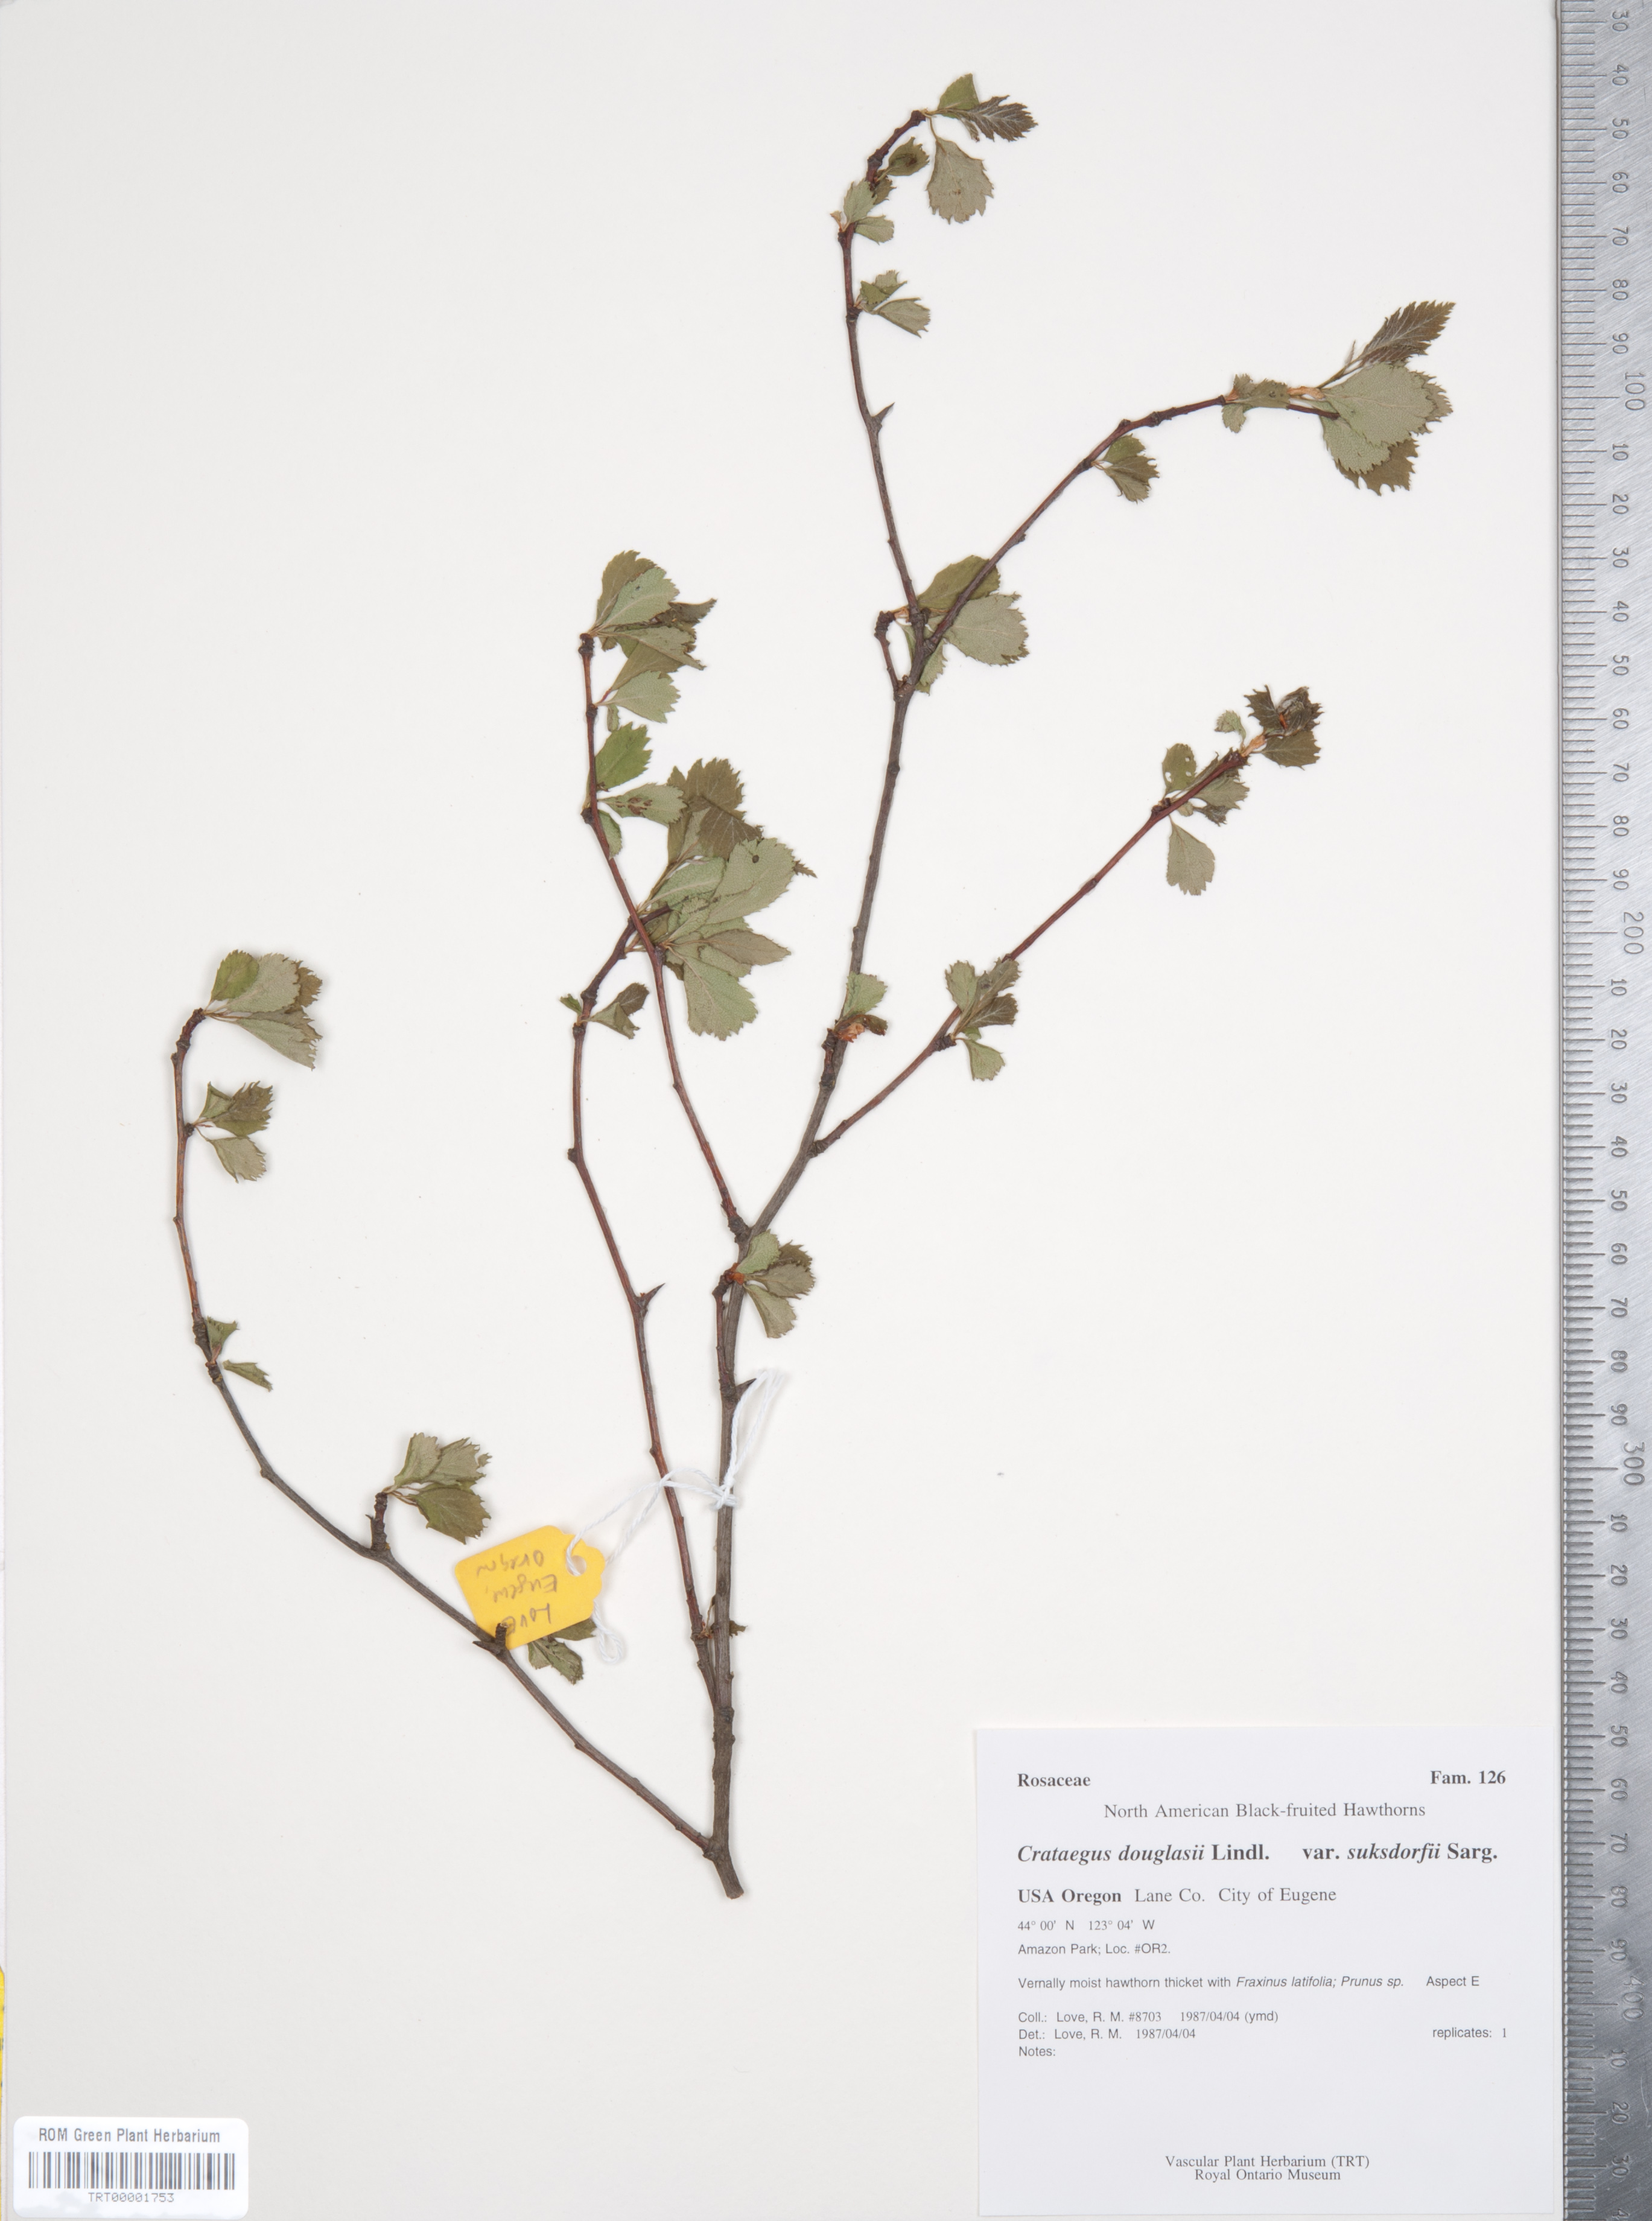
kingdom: Plantae
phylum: Tracheophyta
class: Magnoliopsida
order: Rosales
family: Rosaceae
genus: Crataegus
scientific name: Crataegus gaylussacia
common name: Huckleberry hawthorn
